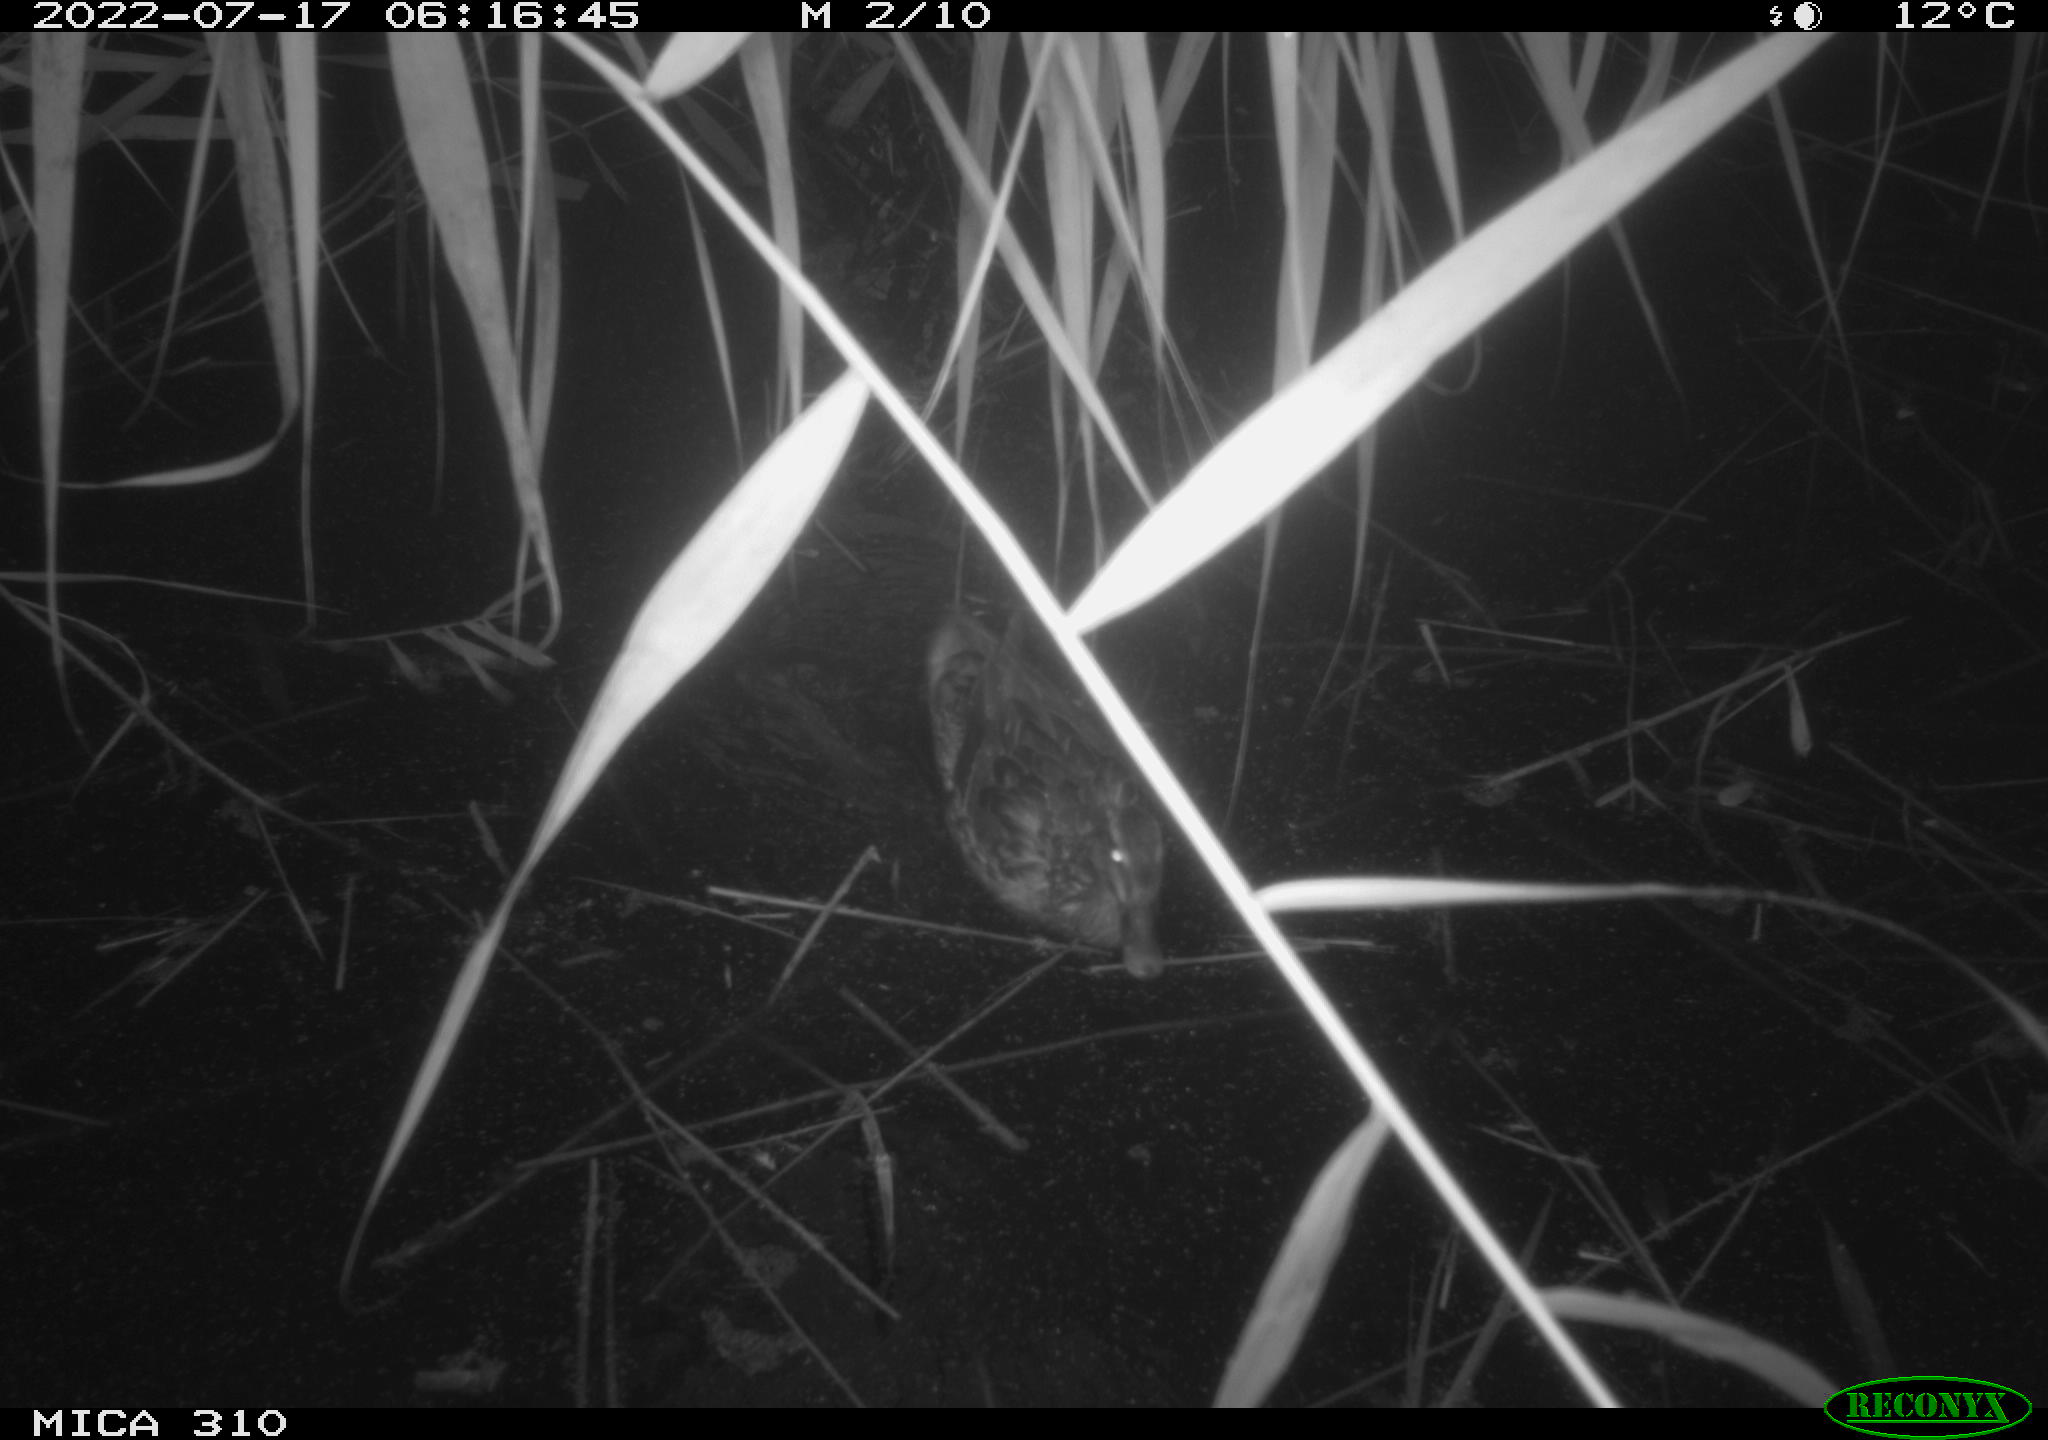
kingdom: Animalia
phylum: Chordata
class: Aves
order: Anseriformes
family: Anatidae
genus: Anas
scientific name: Anas platyrhynchos
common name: Mallard
